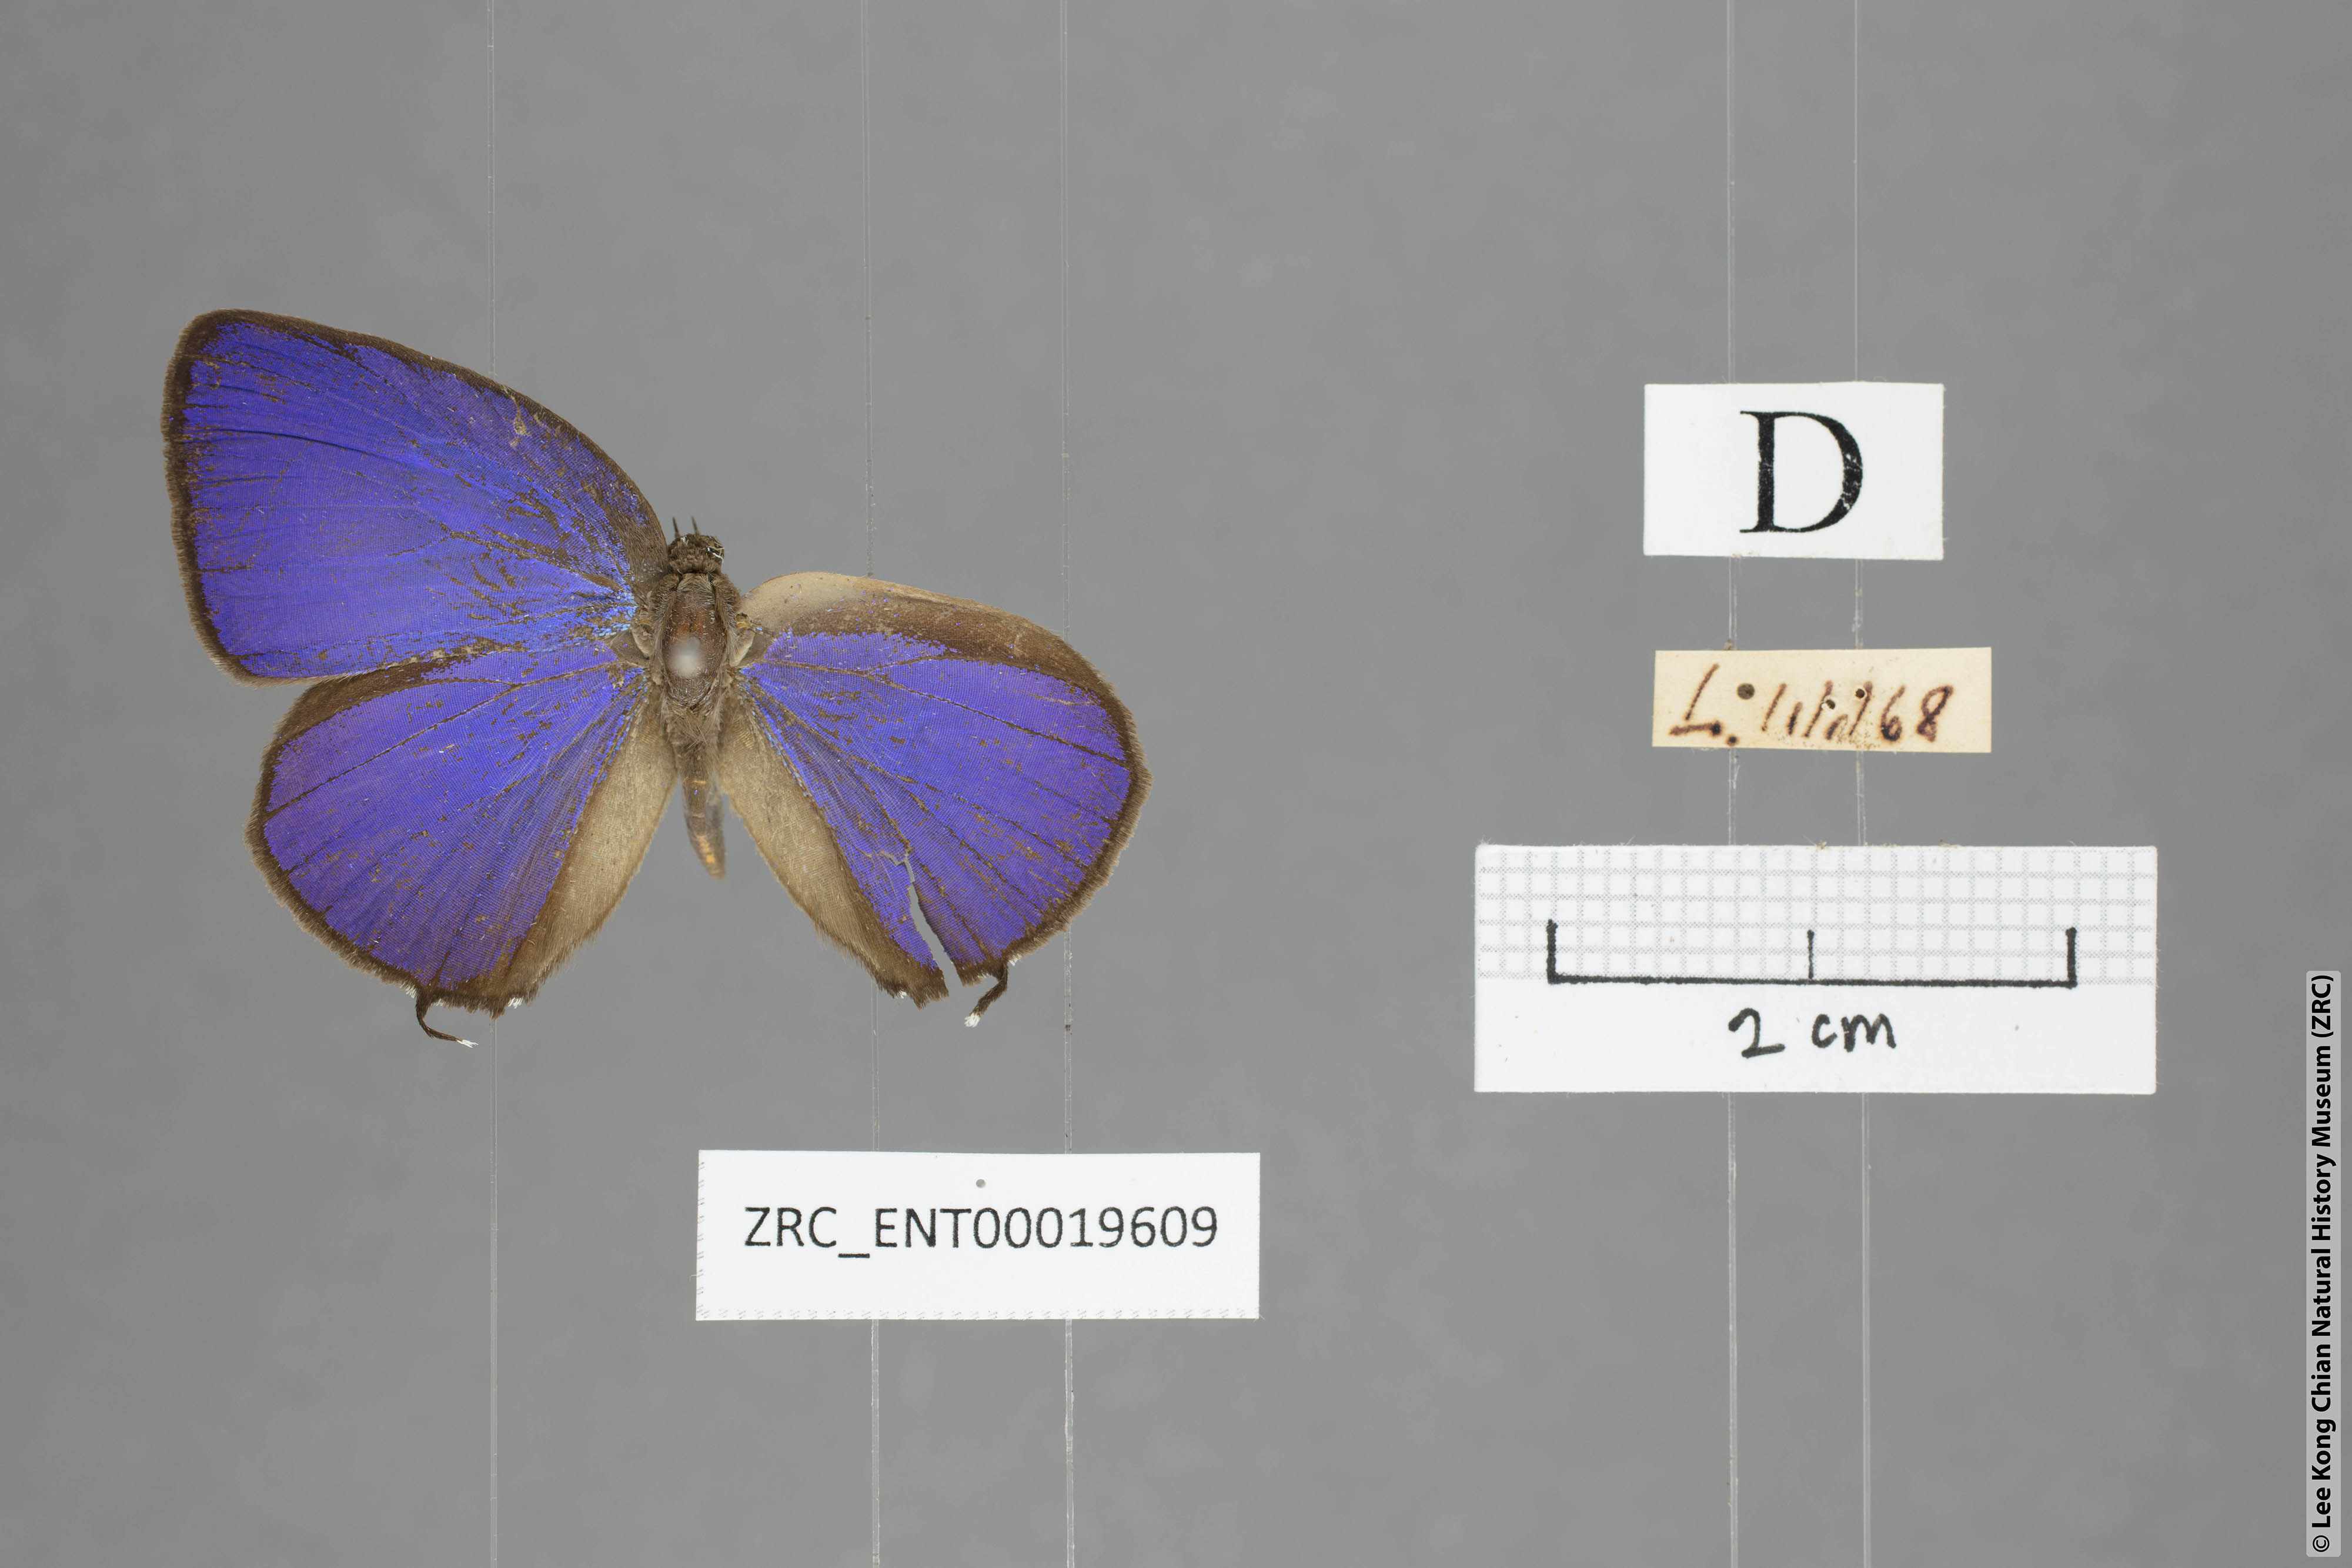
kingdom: Animalia
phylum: Arthropoda
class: Insecta
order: Lepidoptera
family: Lycaenidae
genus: Arhopala
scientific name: Arhopala atosia
